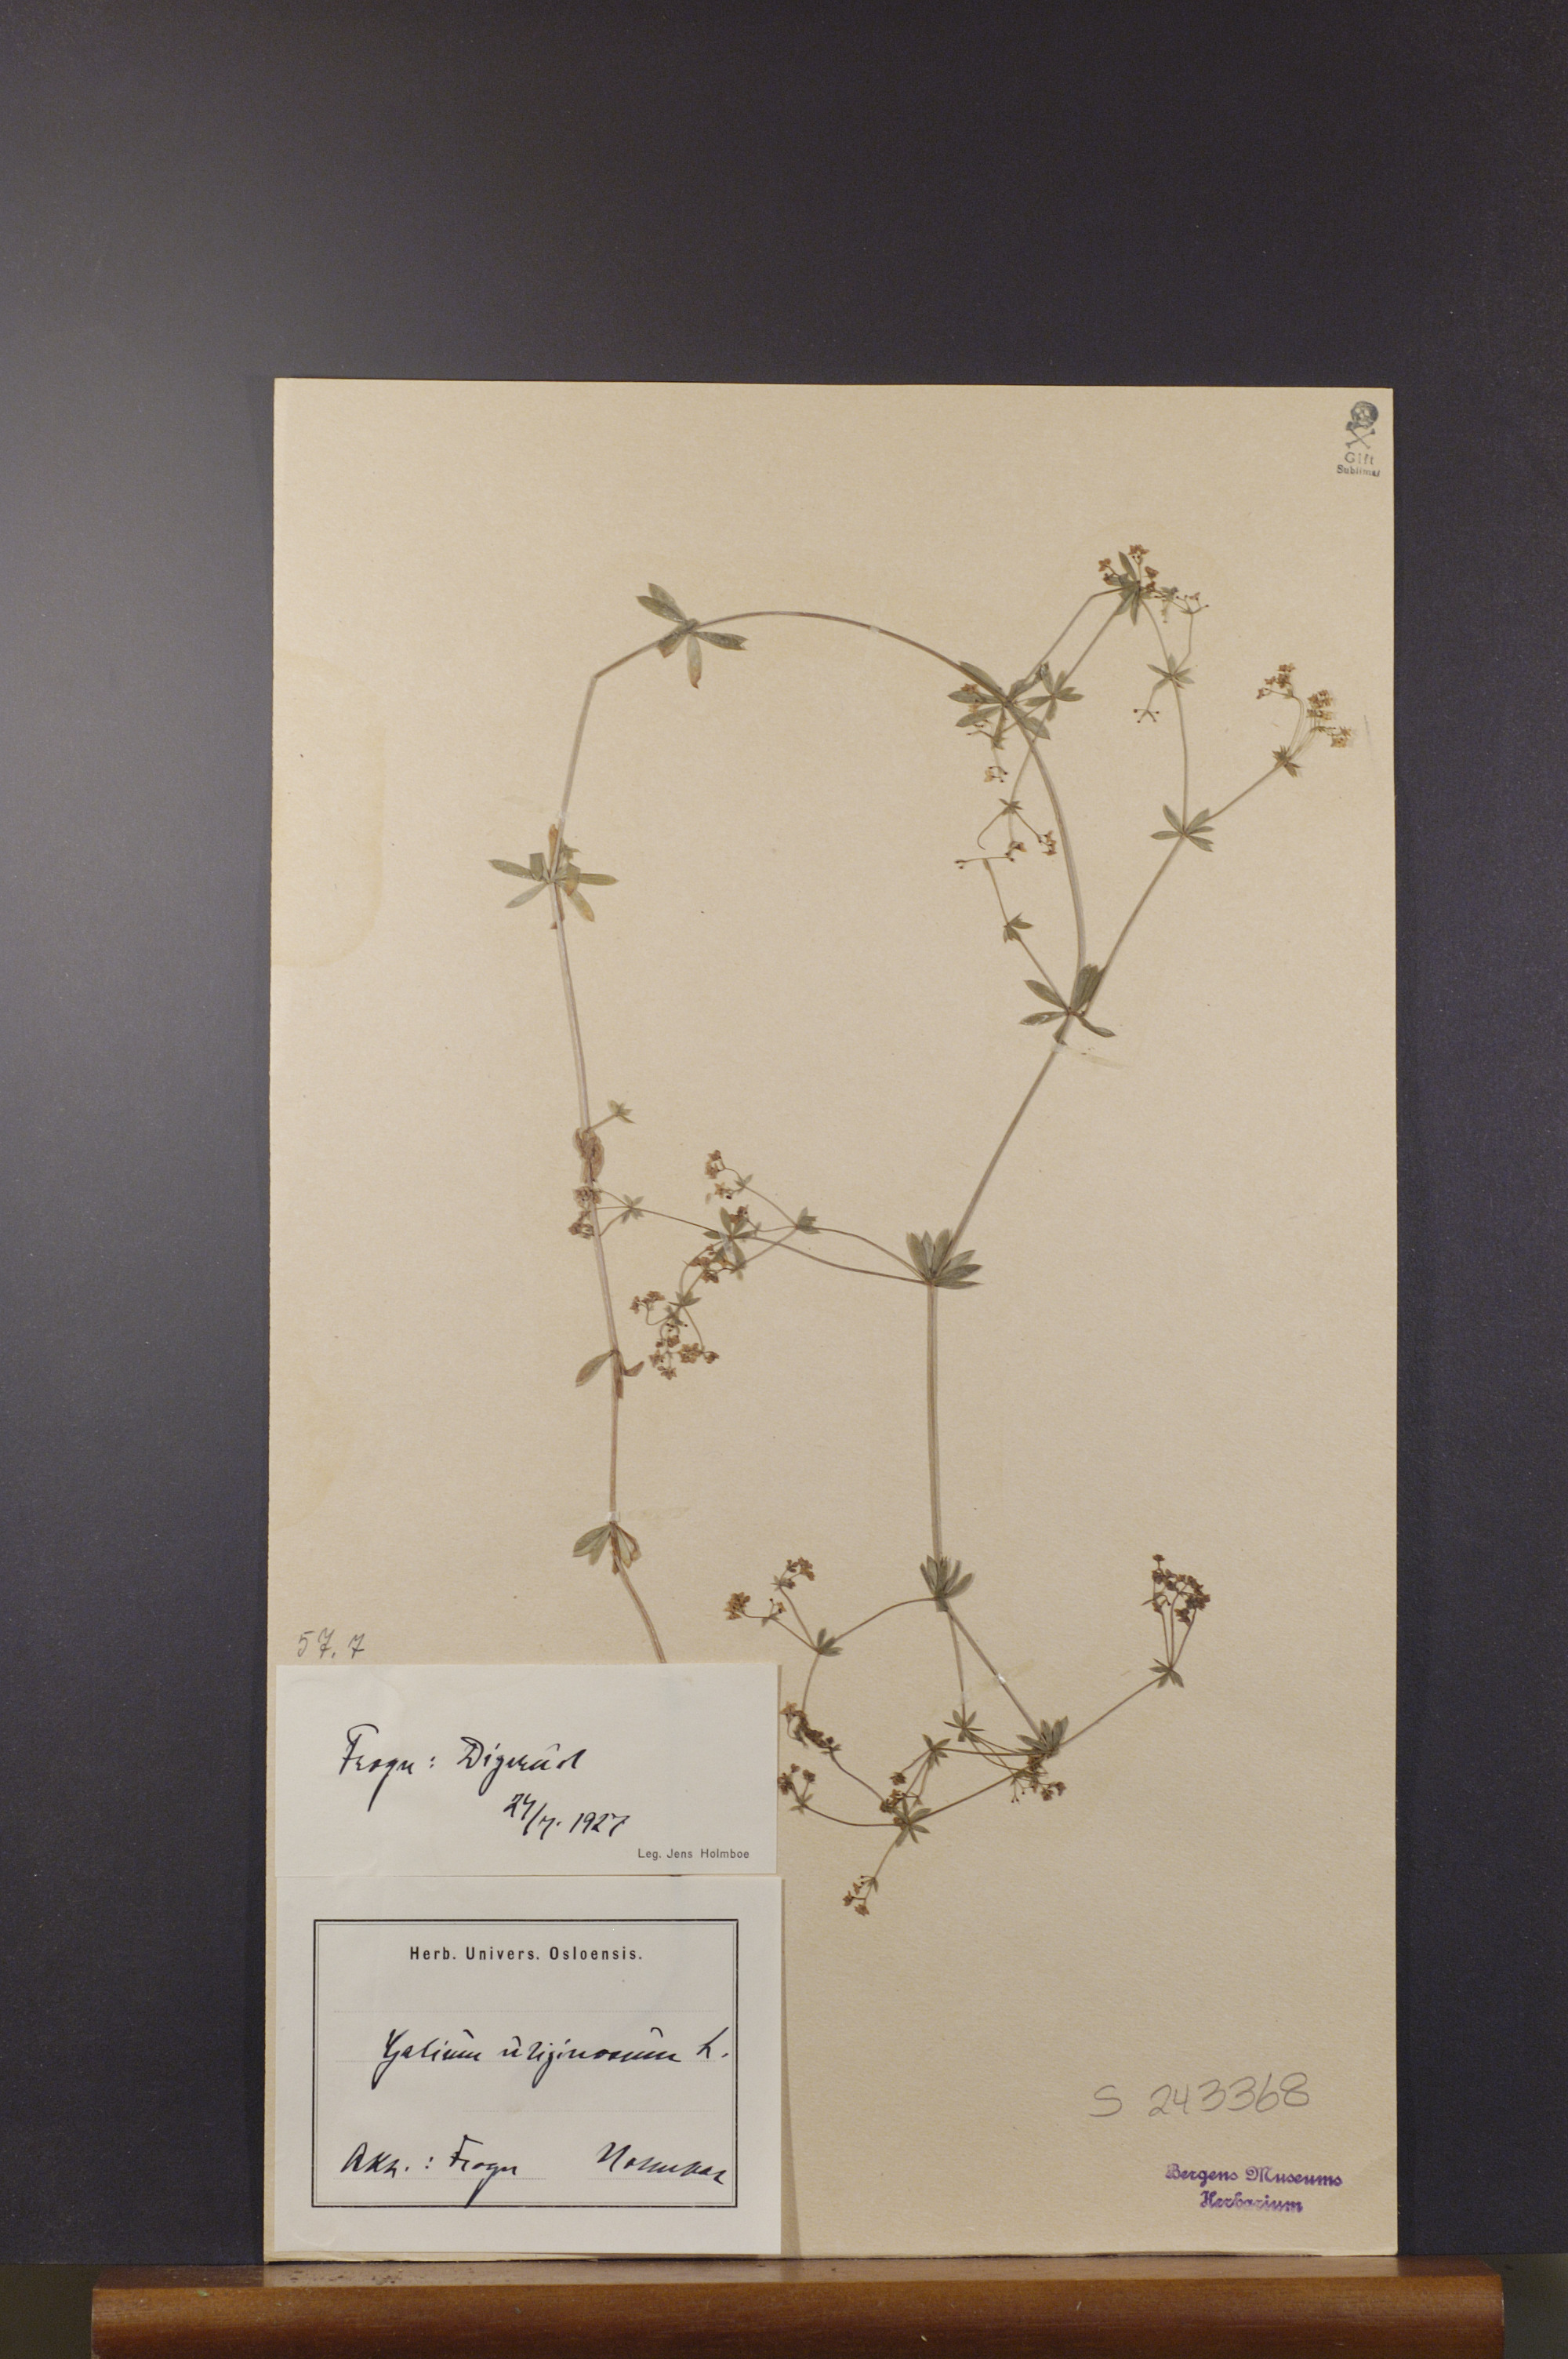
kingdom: Plantae
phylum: Tracheophyta
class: Magnoliopsida
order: Gentianales
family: Rubiaceae
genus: Galium
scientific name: Galium uliginosum
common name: Fen bedstraw
